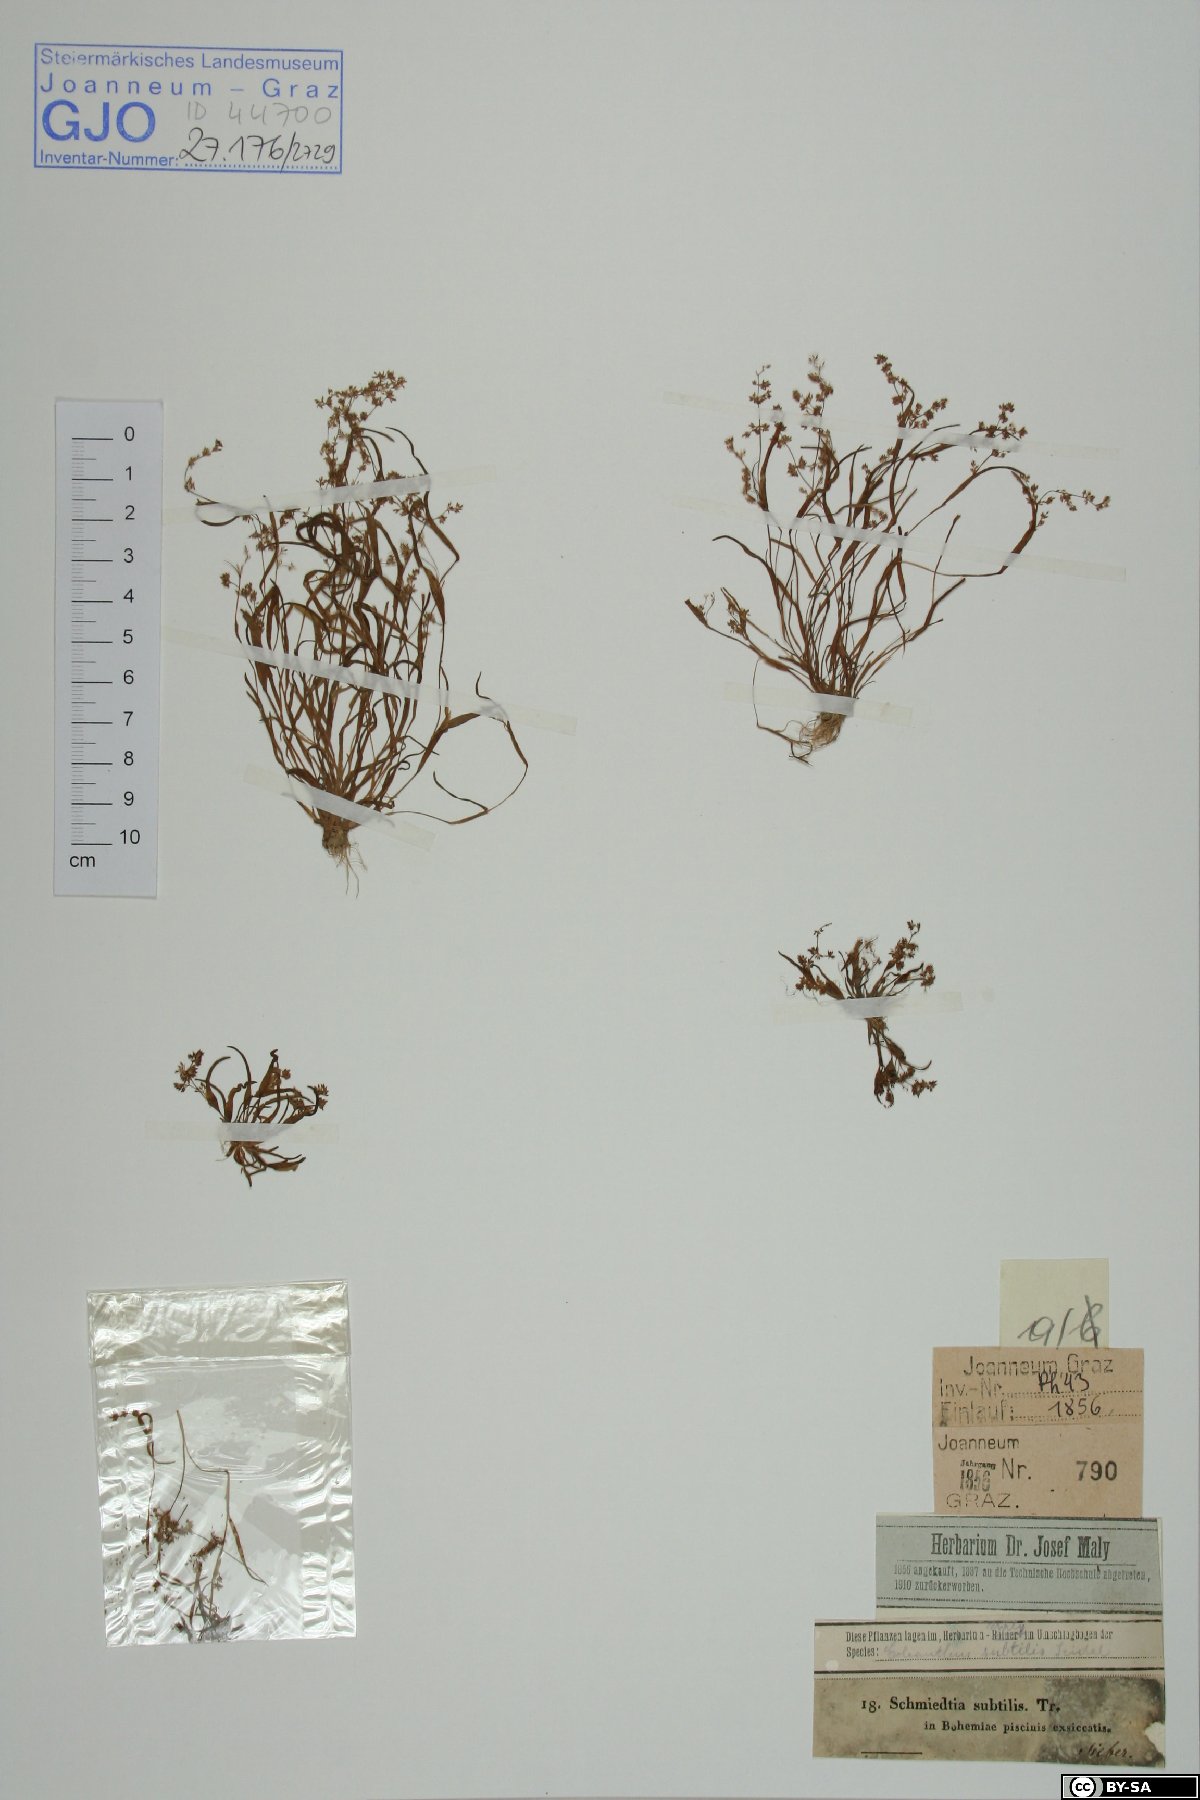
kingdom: Plantae
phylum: Tracheophyta
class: Liliopsida
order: Poales
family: Poaceae
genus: Coleanthus
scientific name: Coleanthus subtilis
